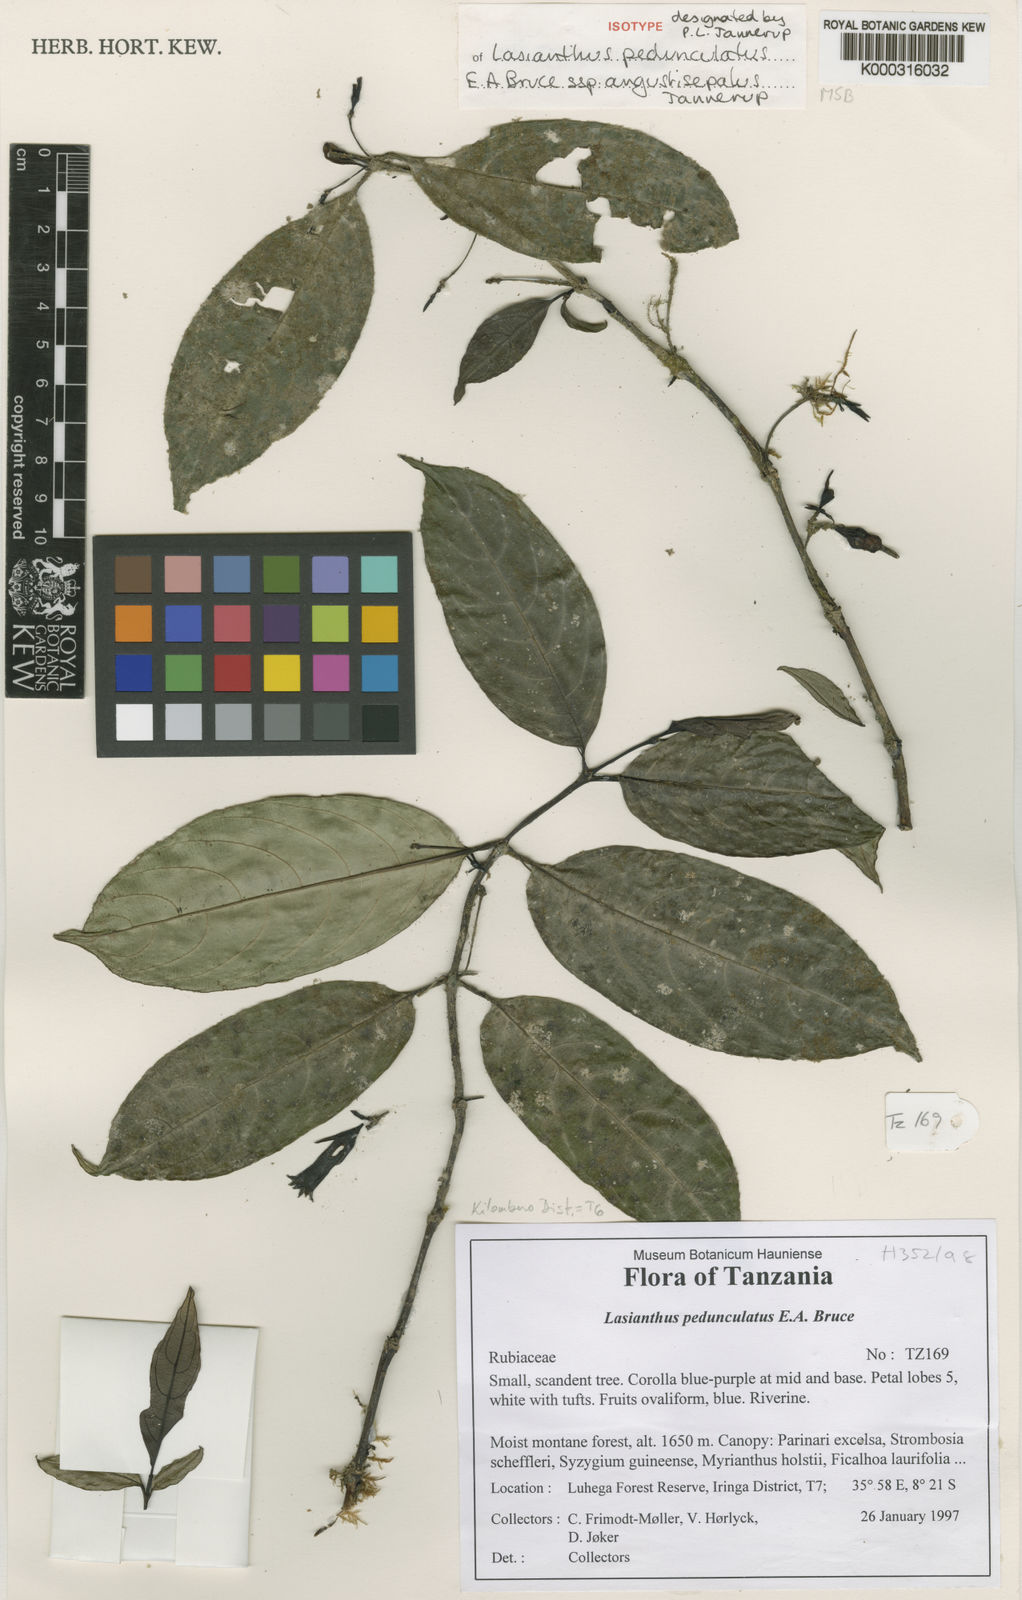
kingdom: Plantae
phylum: Tracheophyta
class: Magnoliopsida
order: Gentianales
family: Rubiaceae
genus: Lasianthus
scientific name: Lasianthus pedunculatus
